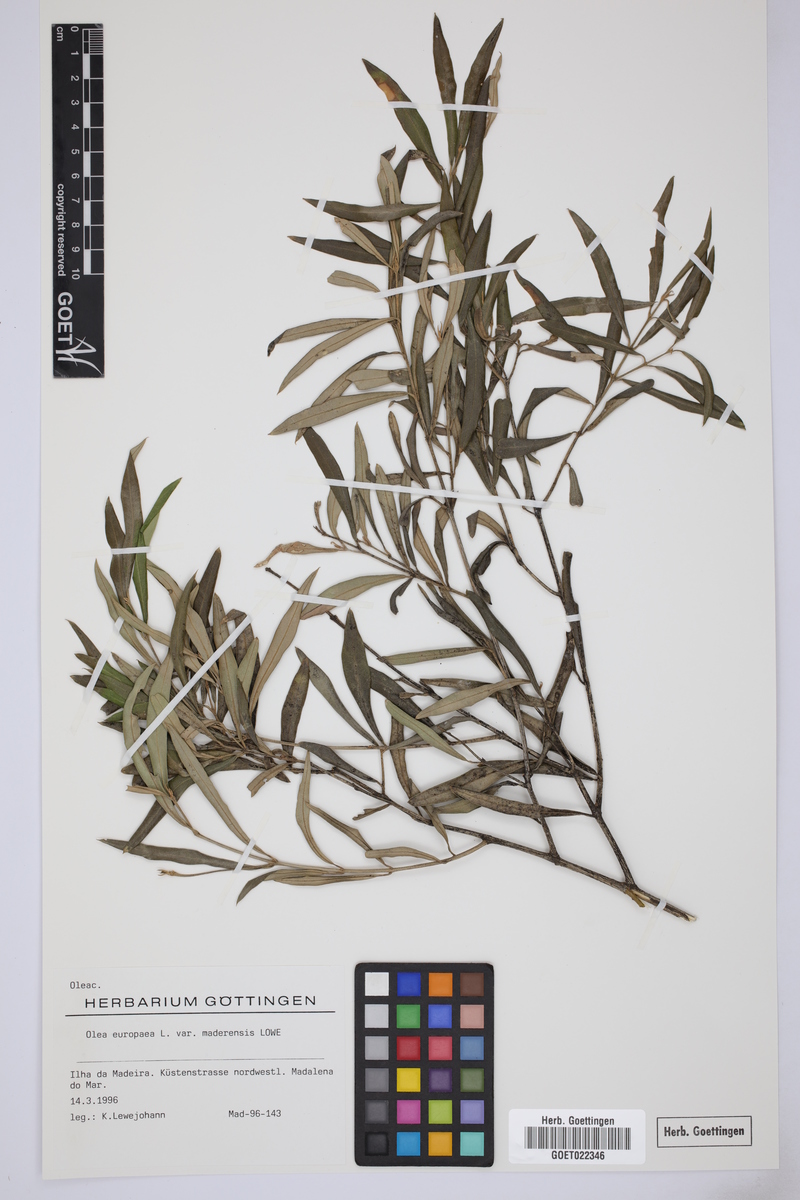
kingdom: Plantae
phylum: Tracheophyta
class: Magnoliopsida
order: Lamiales
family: Oleaceae
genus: Olea
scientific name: Olea europaea
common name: Olive
